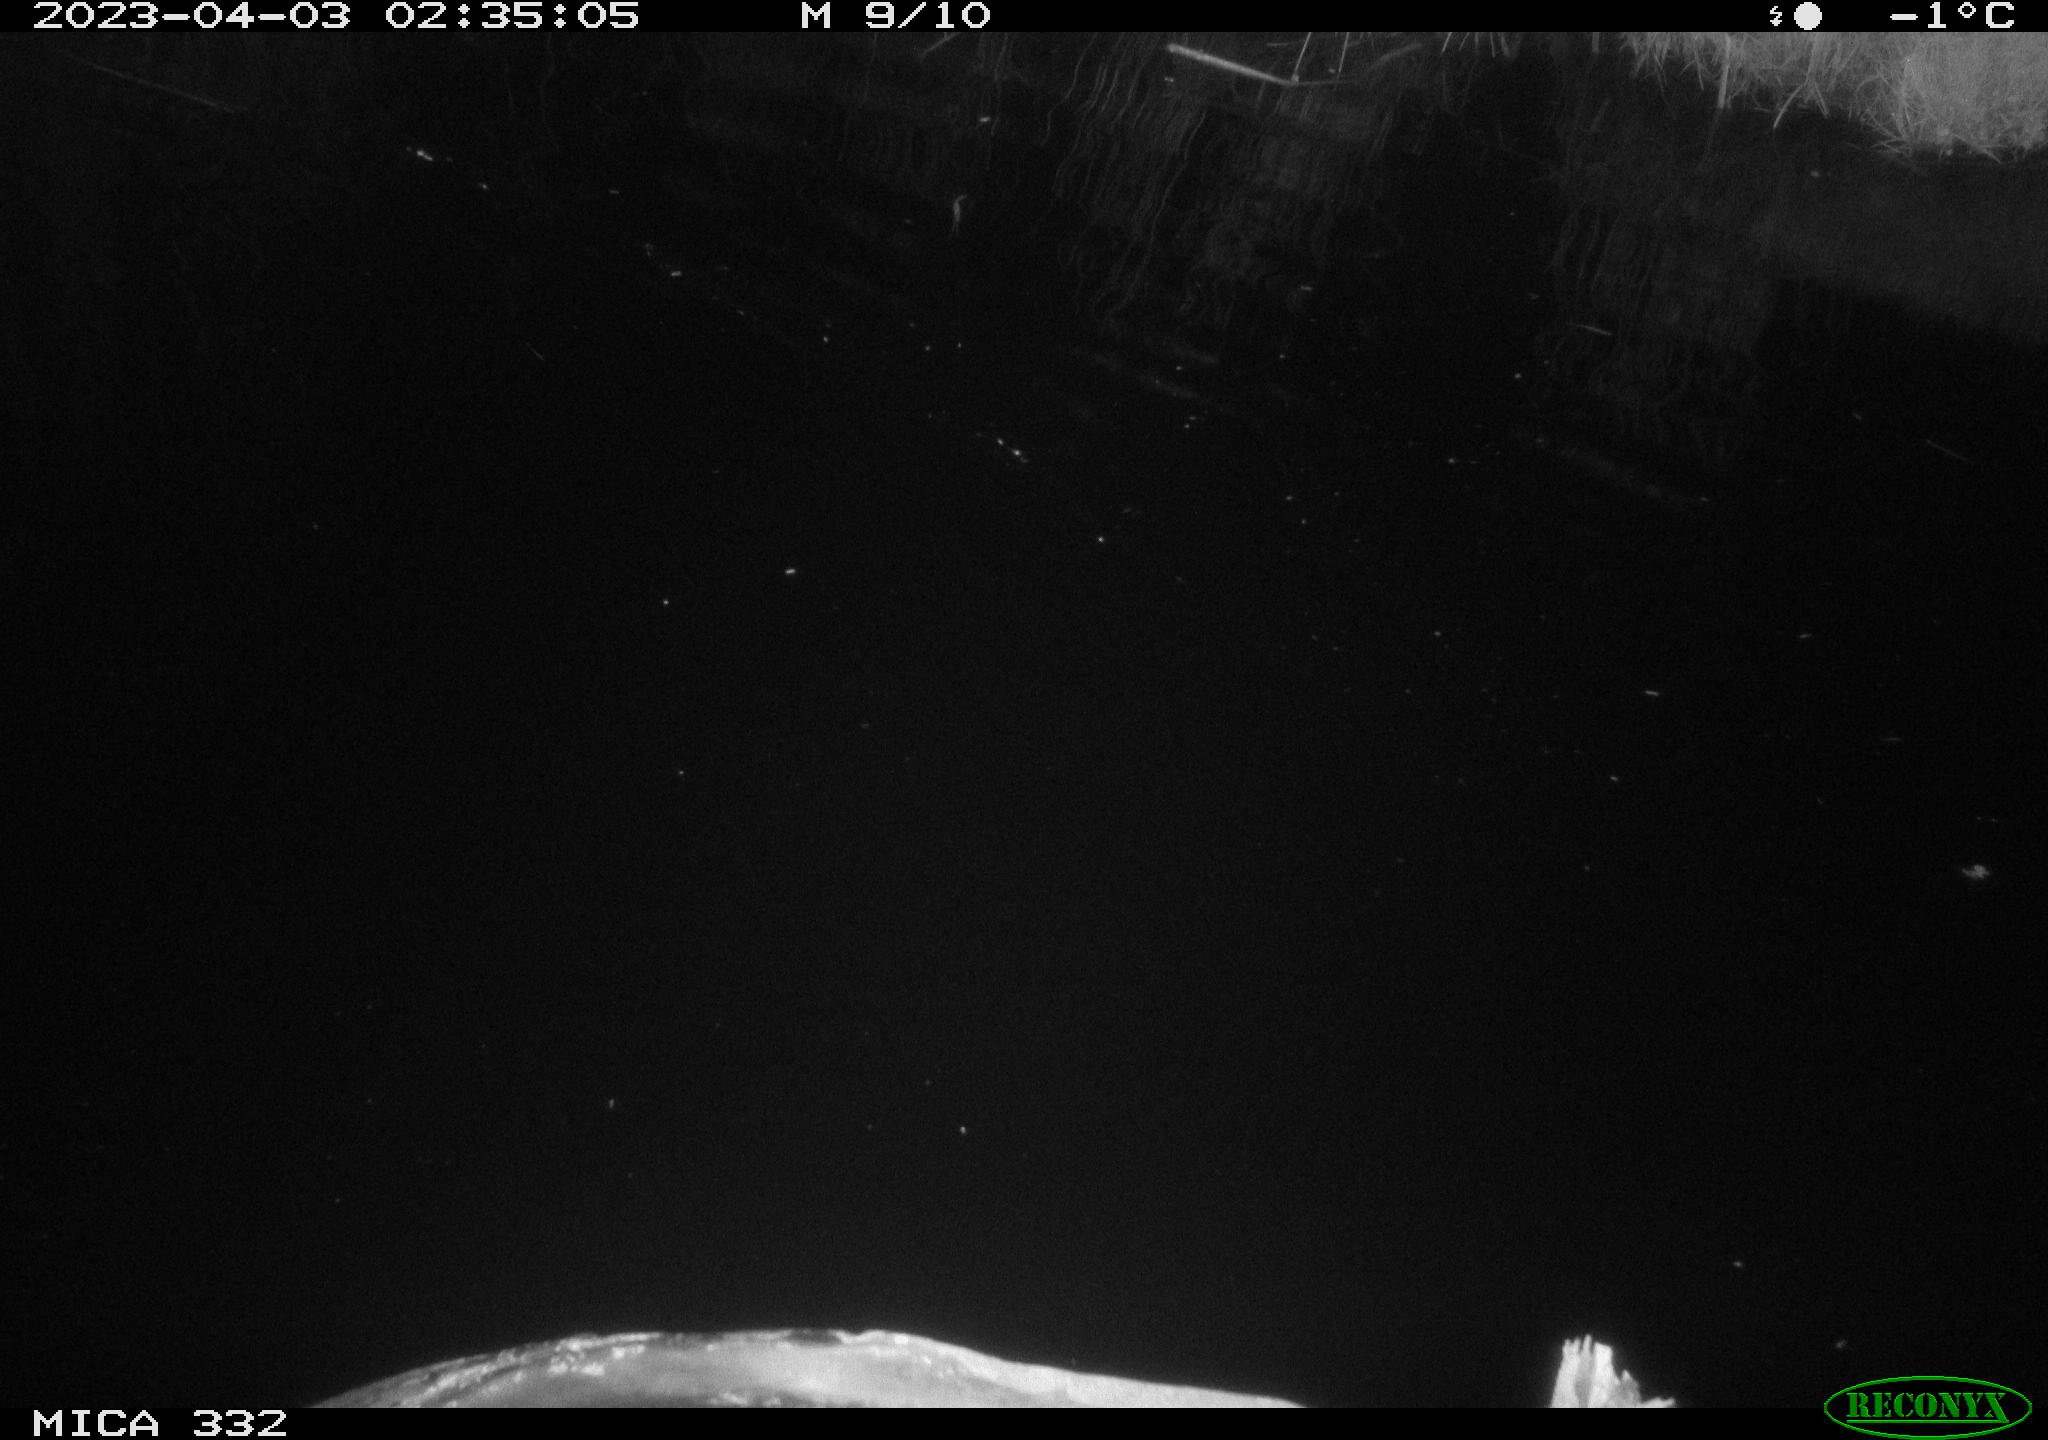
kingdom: Animalia
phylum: Chordata
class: Aves
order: Anseriformes
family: Anatidae
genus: Cygnus
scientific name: Cygnus olor
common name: Mute swan
